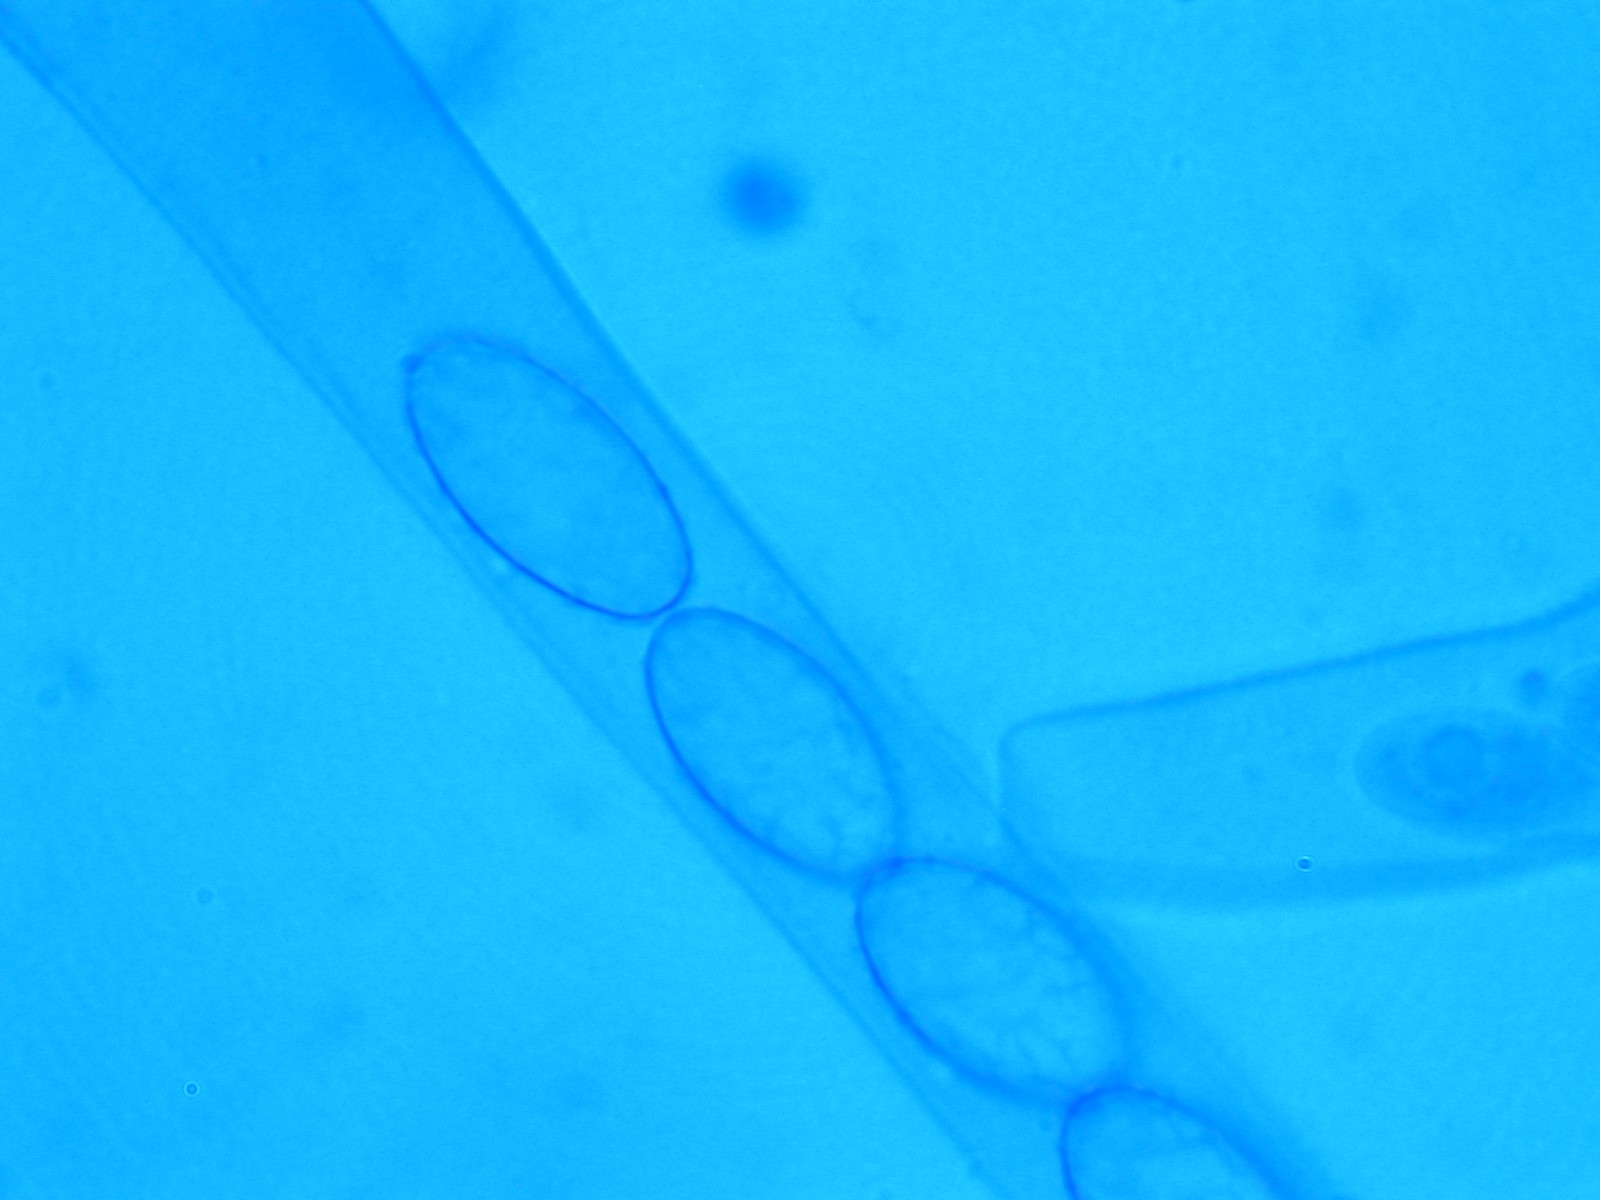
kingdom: Fungi
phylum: Ascomycota
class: Pezizomycetes
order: Pezizales
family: Pezizaceae
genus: Legaliana
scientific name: Legaliana badia
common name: leverbrun bægersvamp
